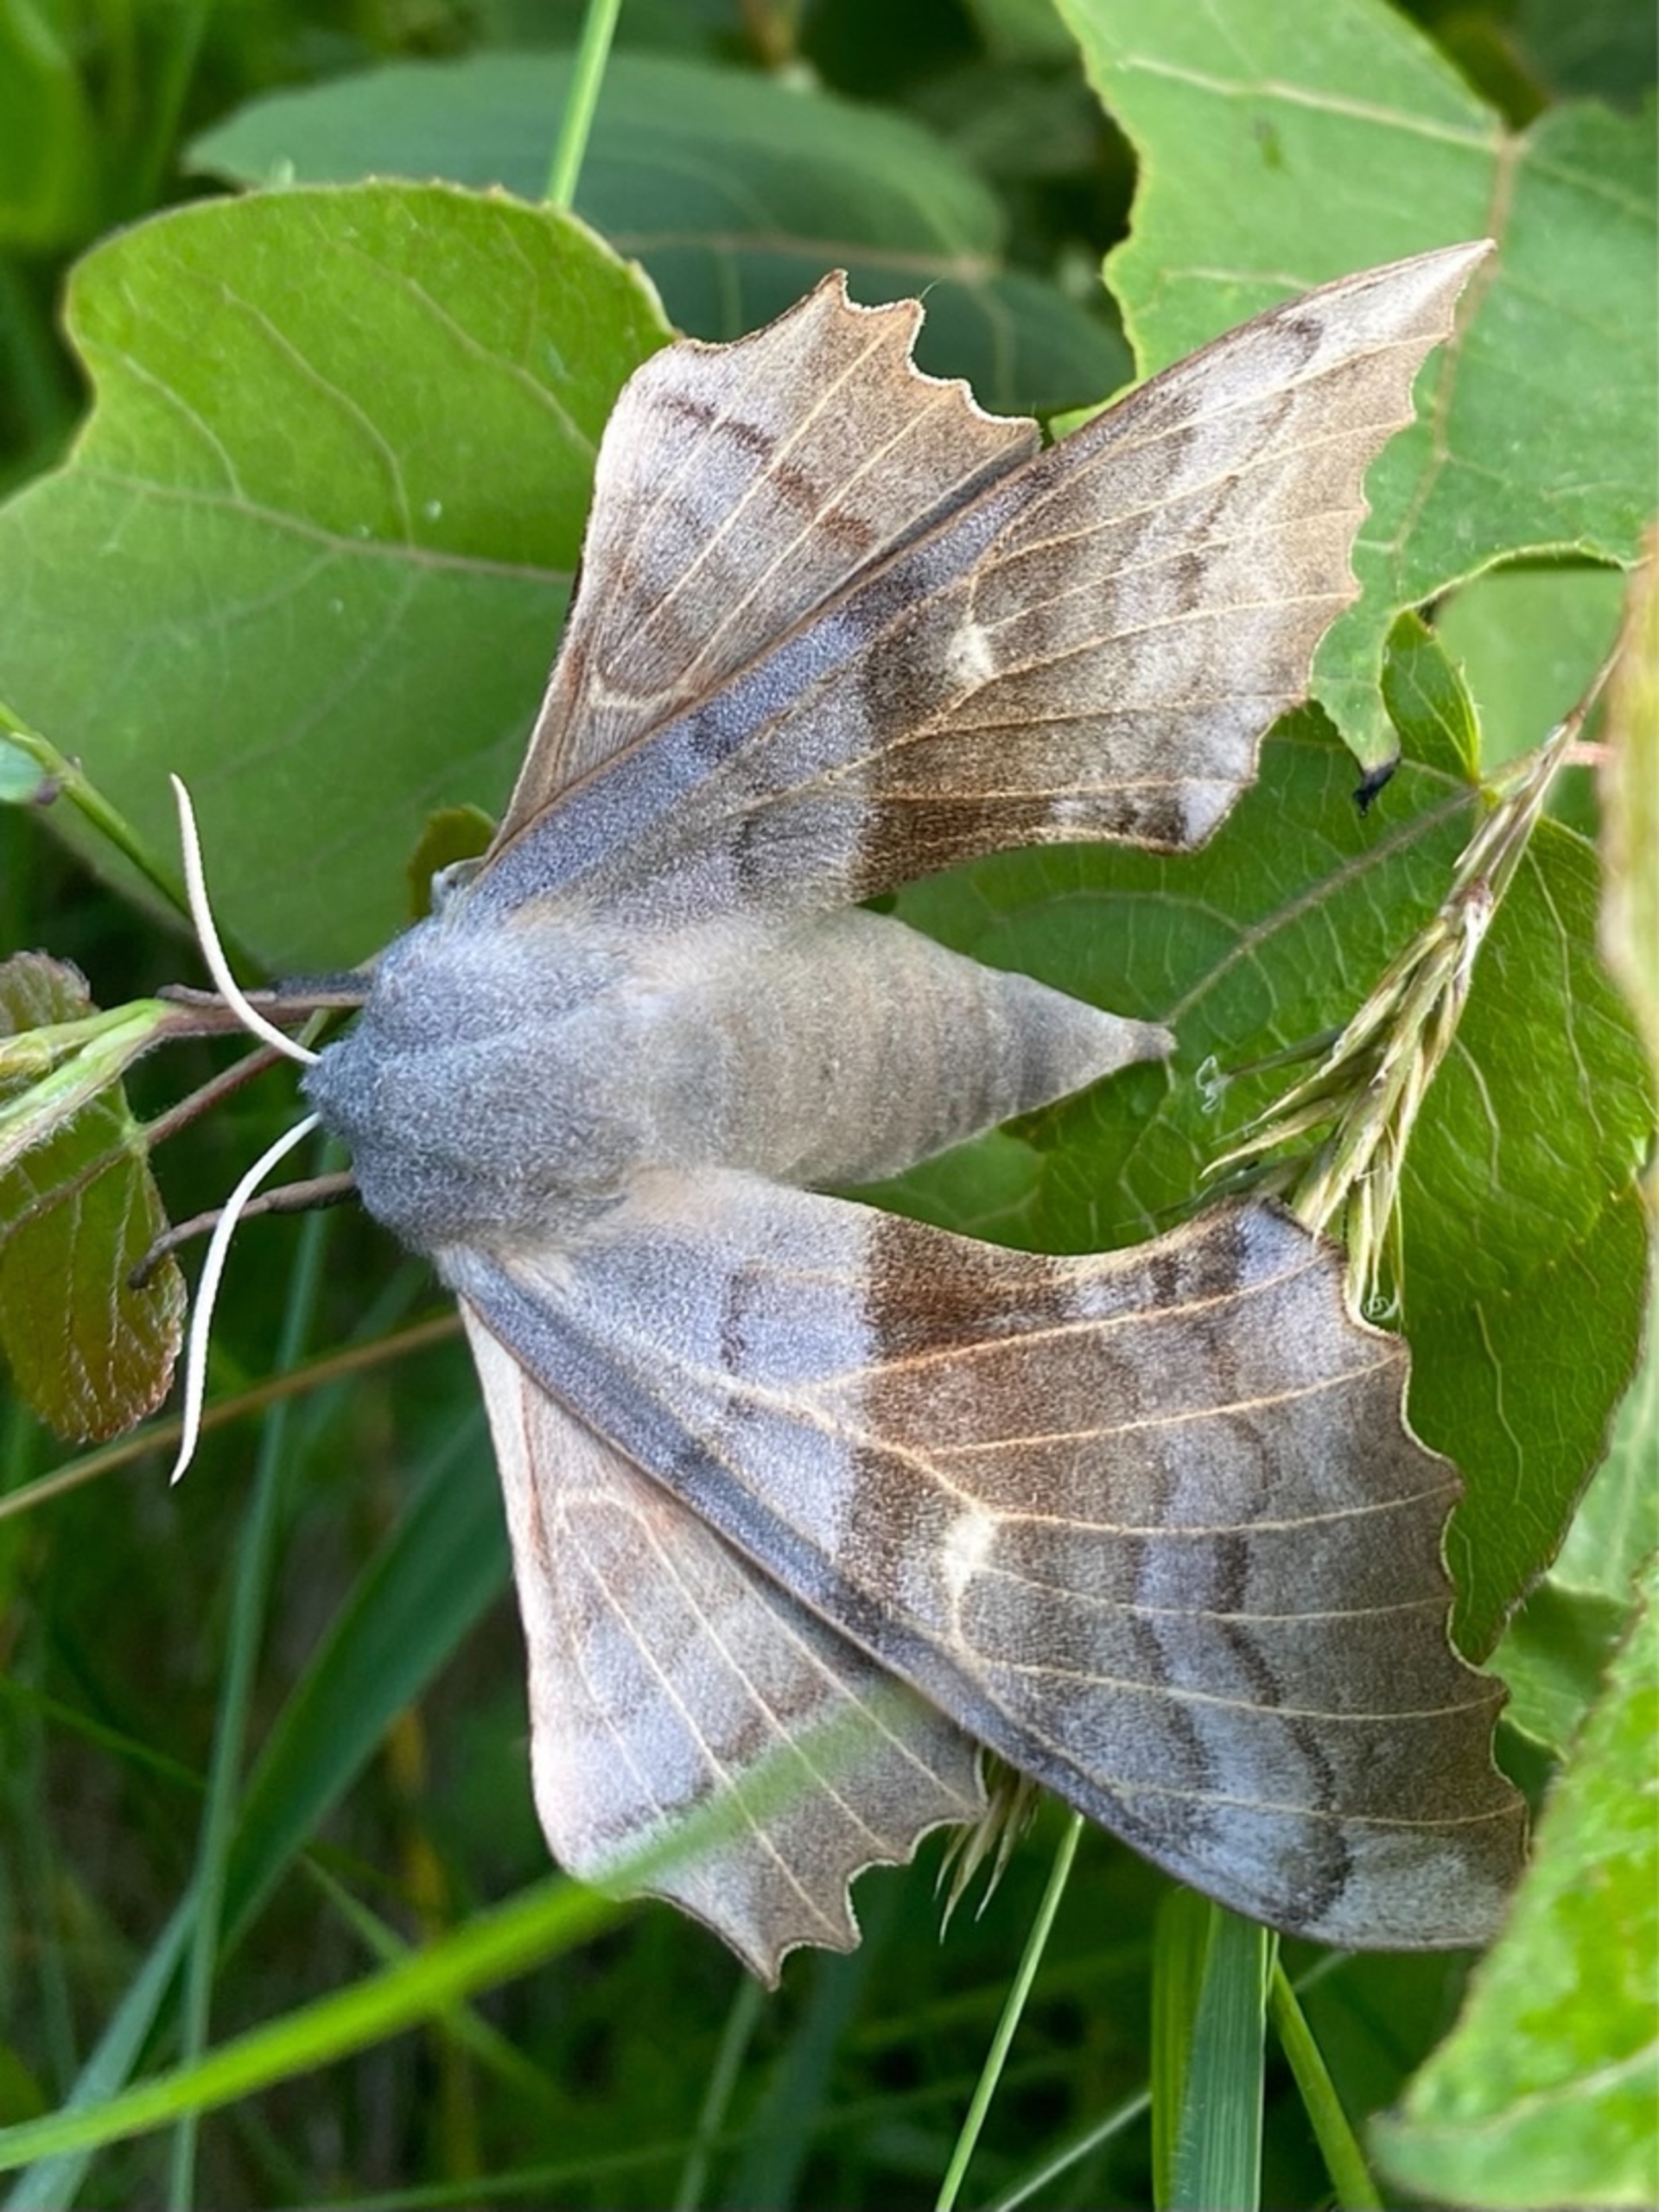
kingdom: Animalia
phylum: Arthropoda
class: Insecta
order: Lepidoptera
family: Sphingidae
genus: Laothoe
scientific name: Laothoe populi
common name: Poppelsværmer
